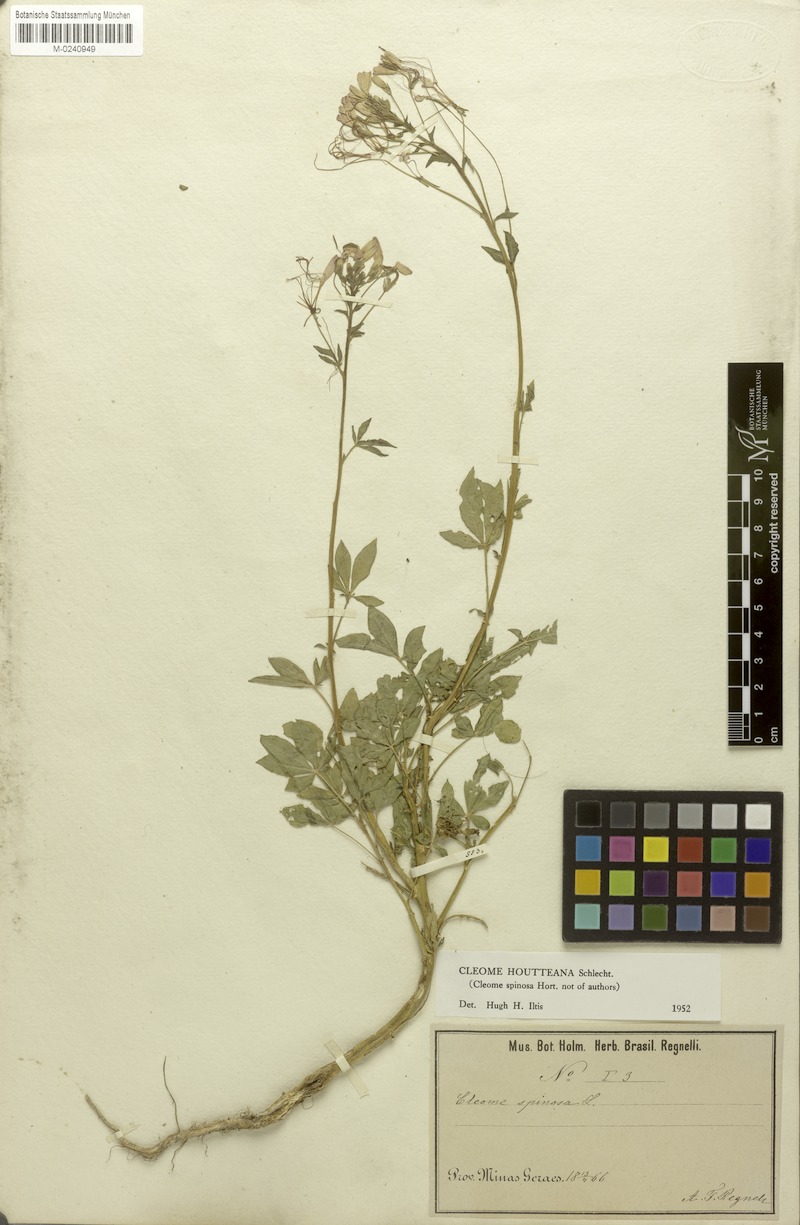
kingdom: Plantae
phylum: Tracheophyta
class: Magnoliopsida
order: Brassicales
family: Cleomaceae
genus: Tarenaya
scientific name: Tarenaya houtteana
